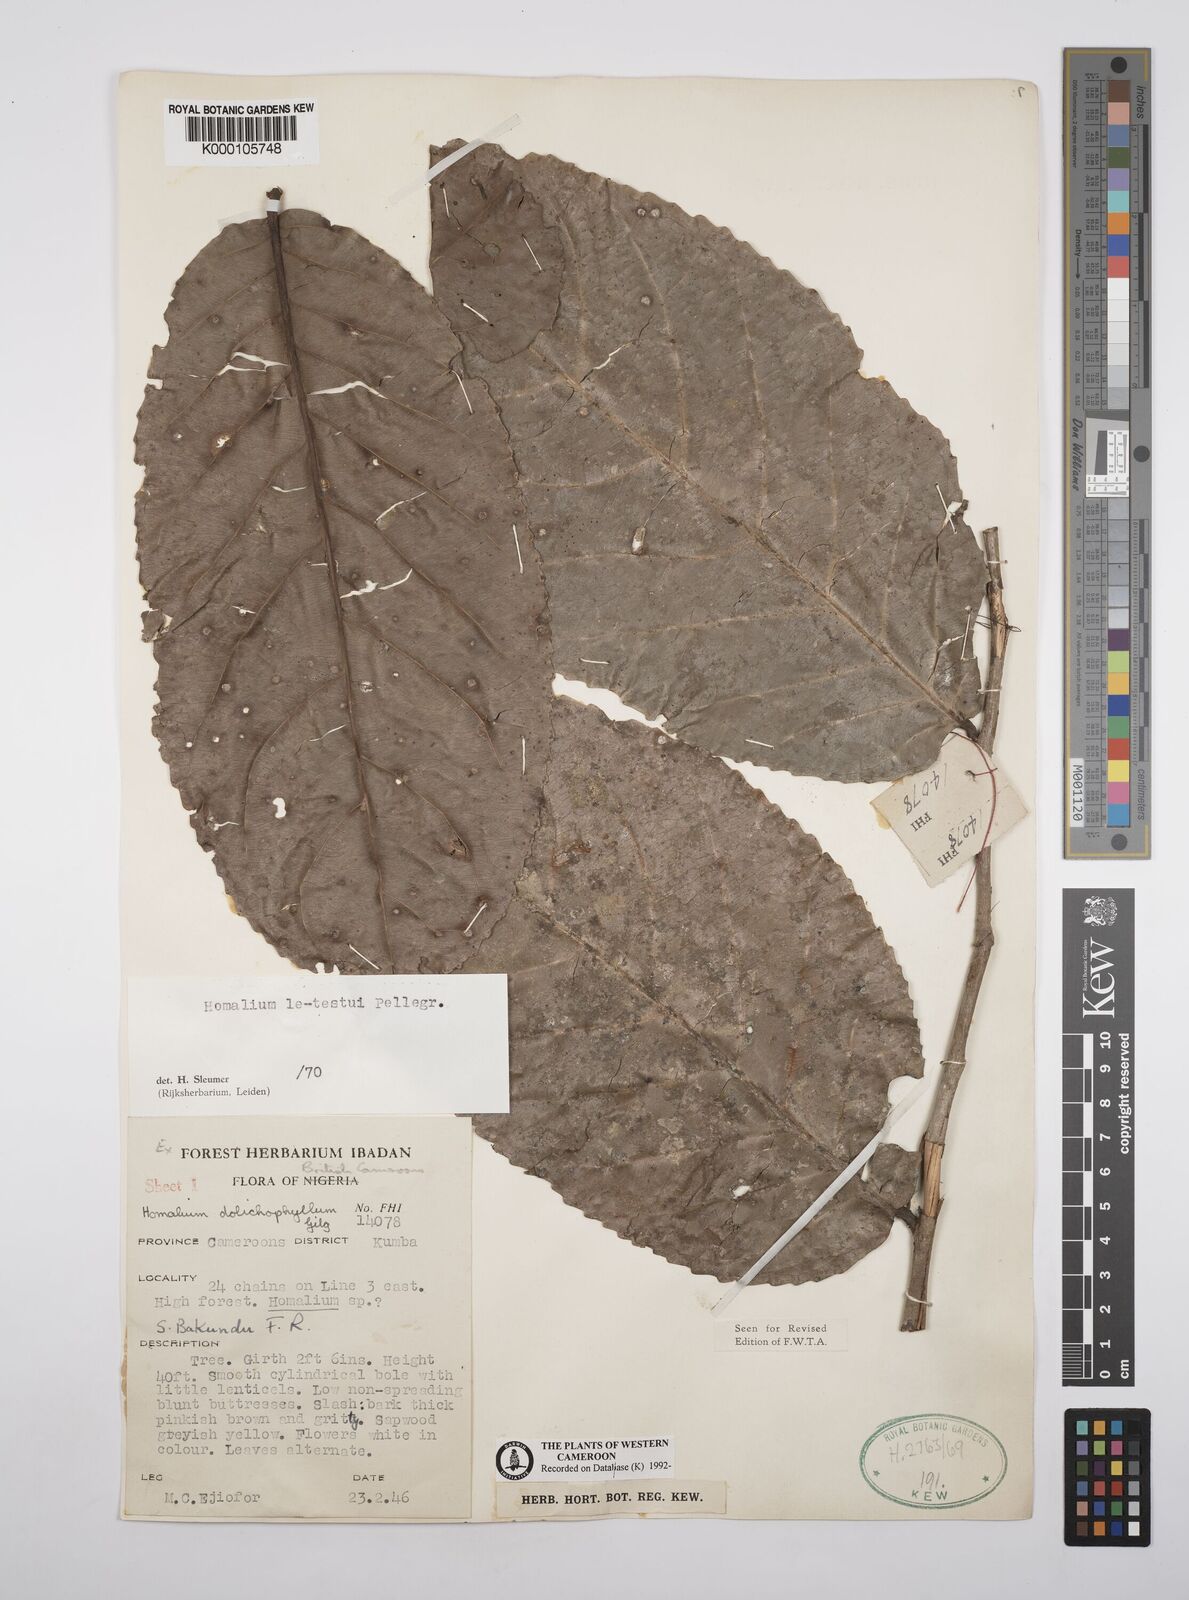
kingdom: Plantae
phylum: Tracheophyta
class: Magnoliopsida
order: Malpighiales
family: Salicaceae
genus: Homalium
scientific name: Homalium letestui
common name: African homalium
